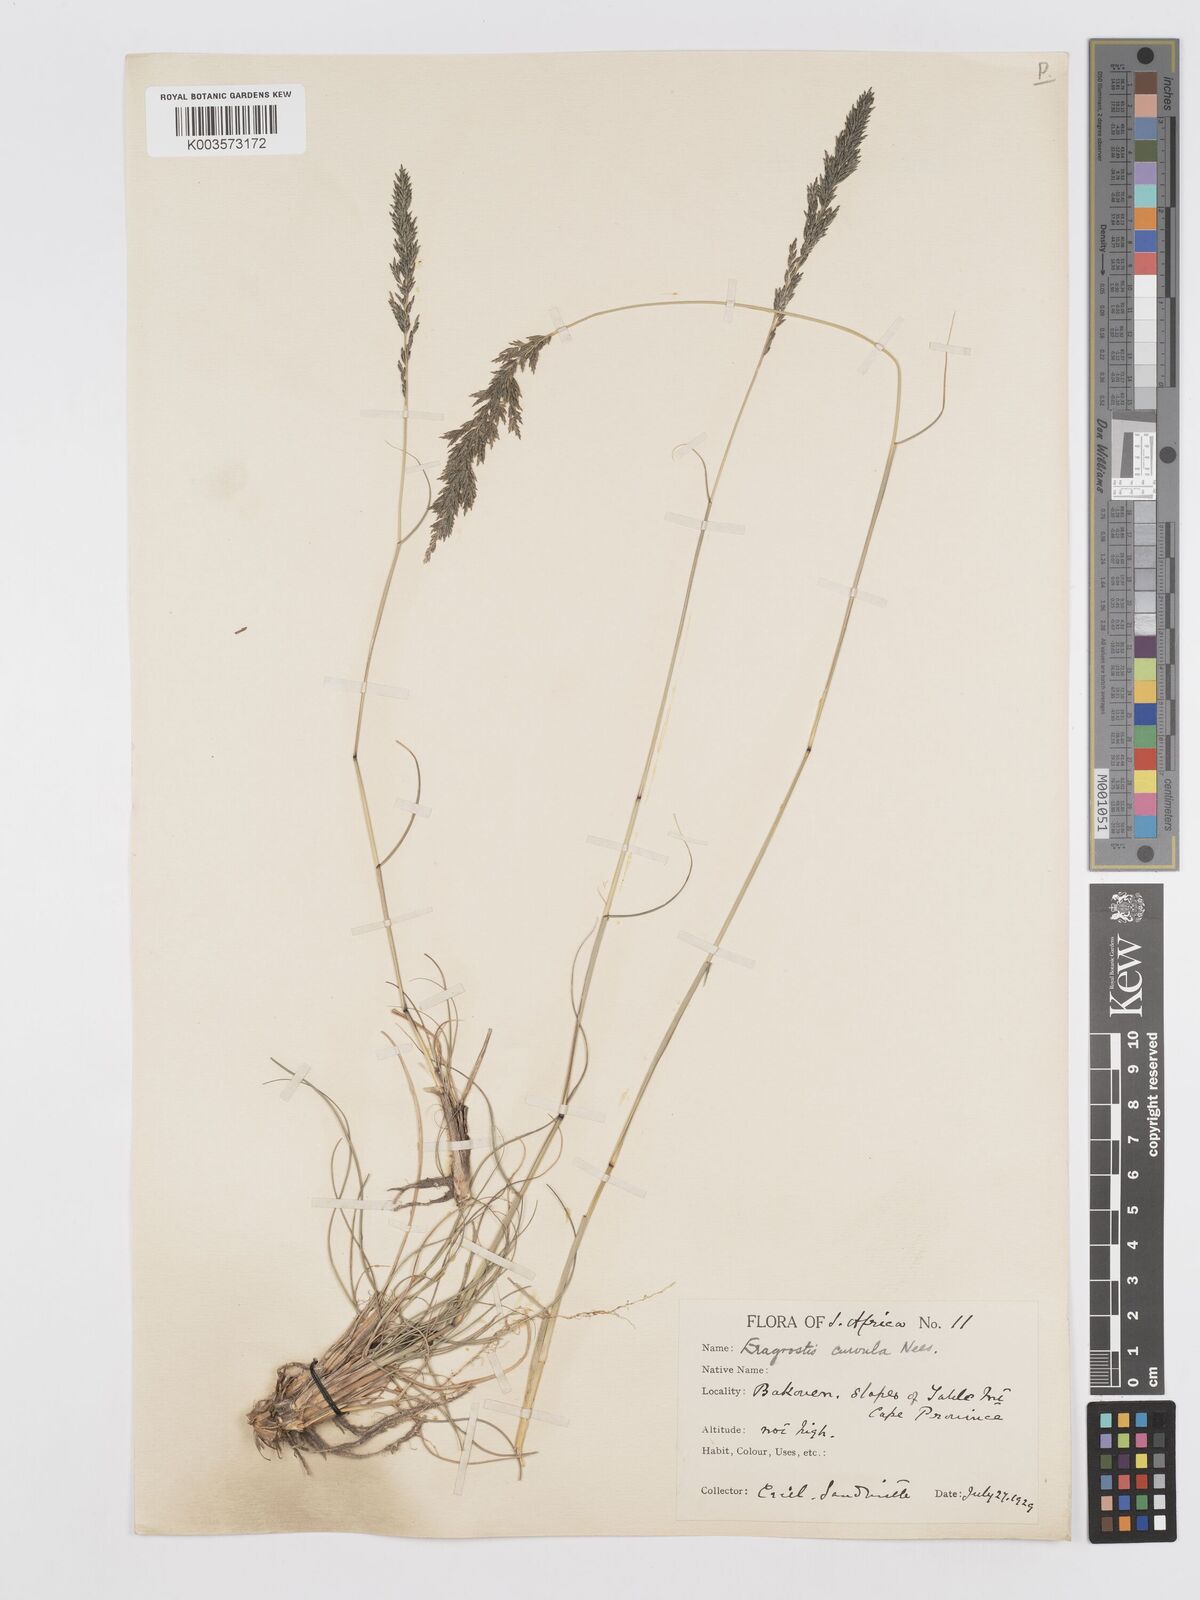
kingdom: Plantae
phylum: Tracheophyta
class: Liliopsida
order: Poales
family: Poaceae
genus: Eragrostis
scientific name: Eragrostis curvula
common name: African love-grass
